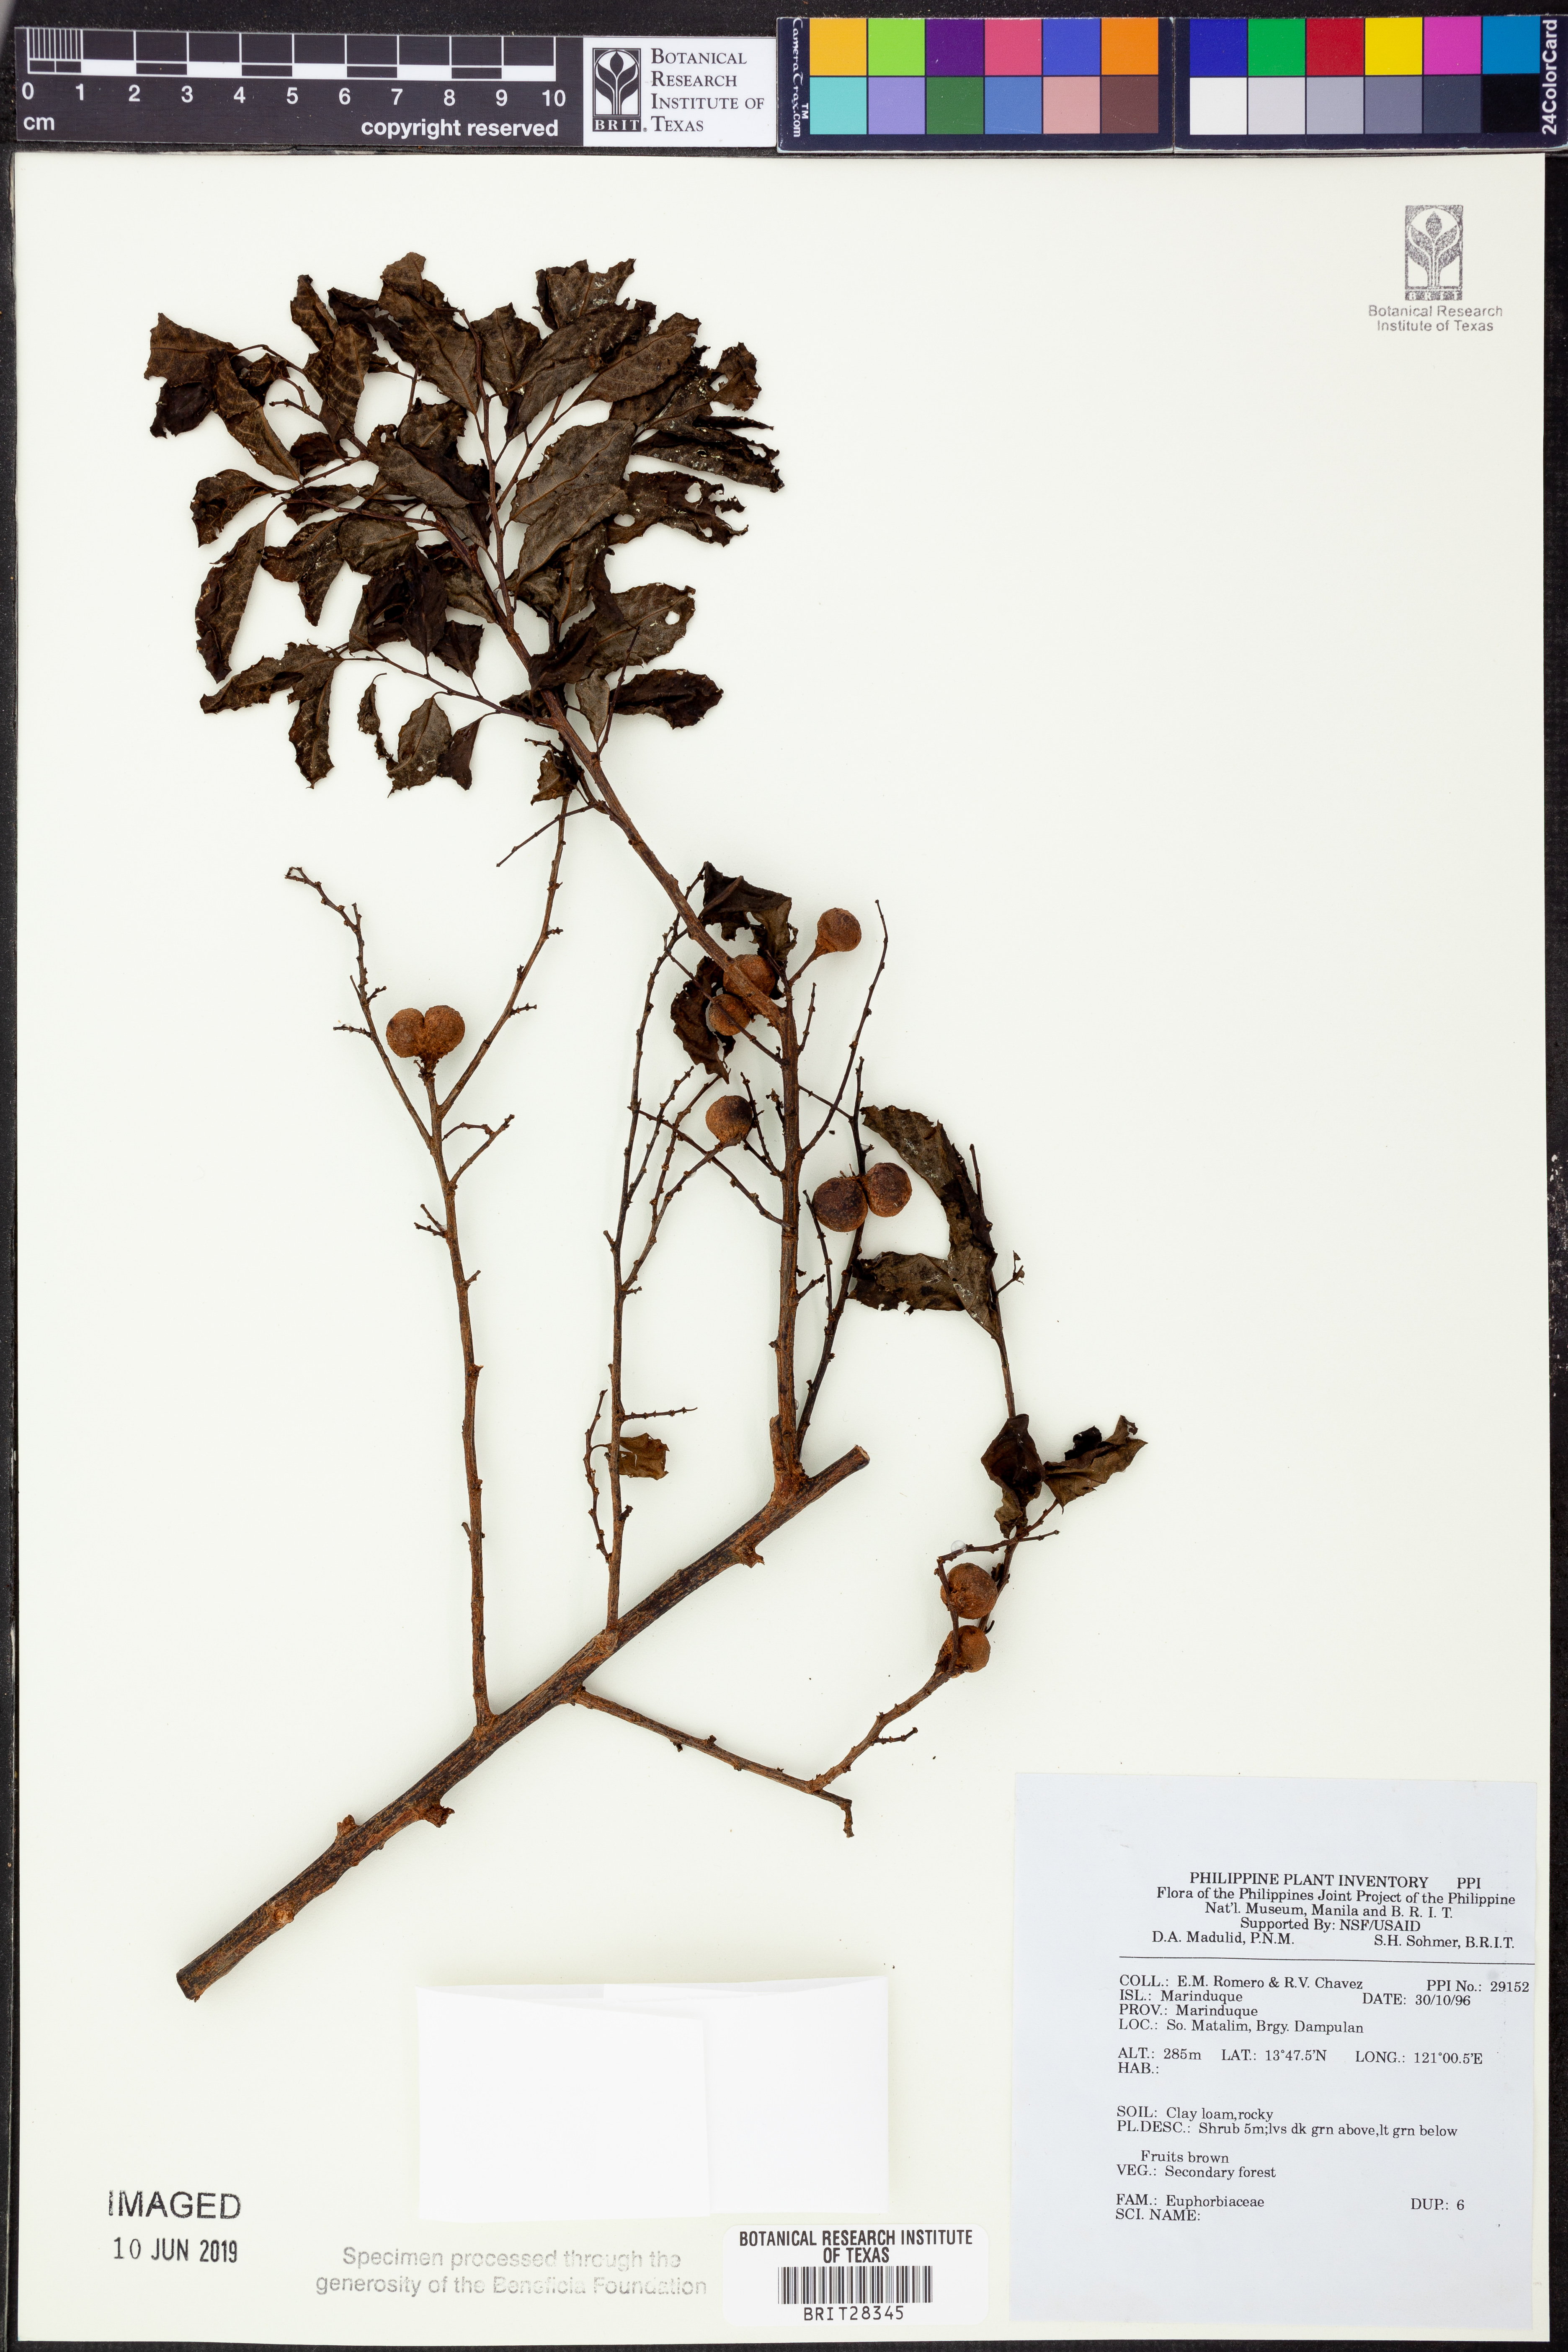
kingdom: Plantae
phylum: Tracheophyta
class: Magnoliopsida
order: Malpighiales
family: Euphorbiaceae
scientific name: Euphorbiaceae
